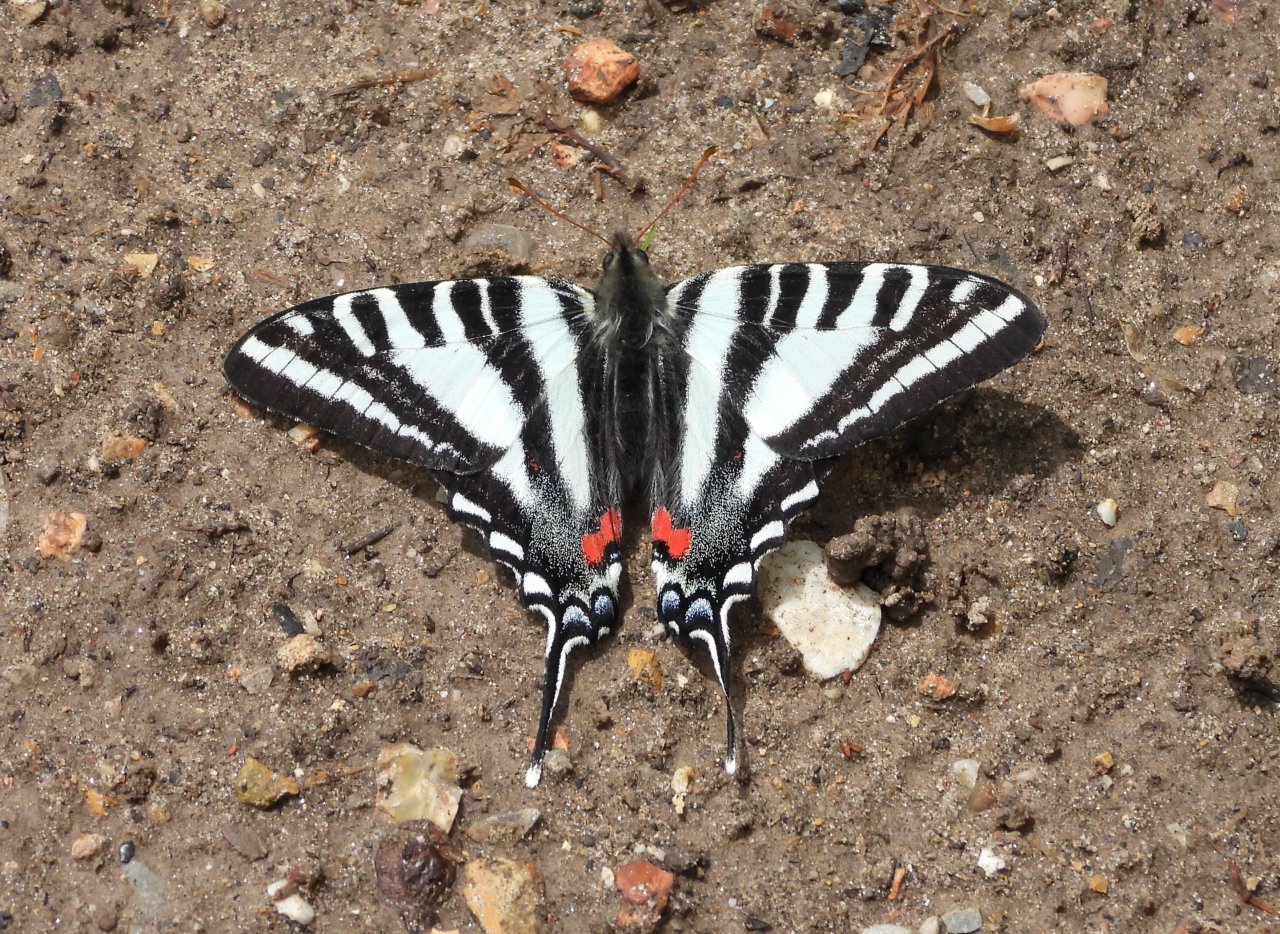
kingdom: Animalia
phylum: Arthropoda
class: Insecta
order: Lepidoptera
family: Papilionidae
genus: Protographium
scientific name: Protographium marcellus
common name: Zebra Swallowtail
